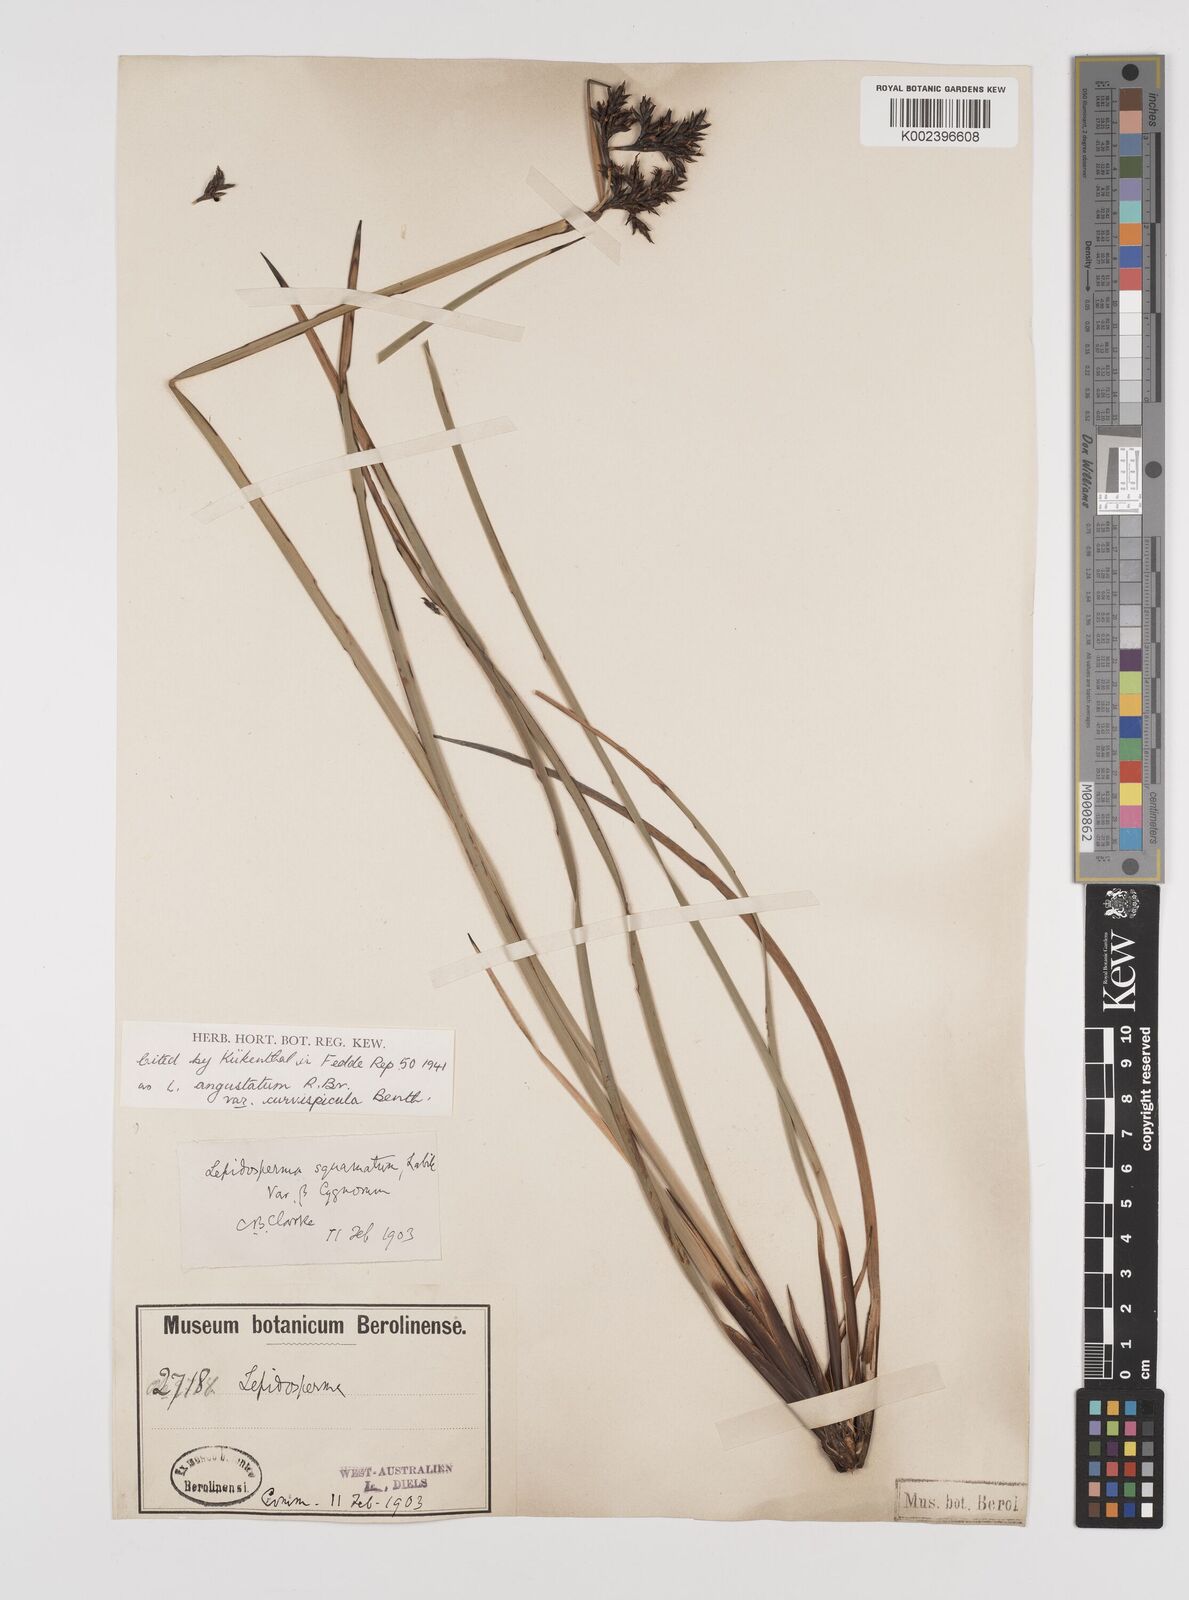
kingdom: Plantae
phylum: Tracheophyta
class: Liliopsida
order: Poales
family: Cyperaceae
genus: Lepidosperma
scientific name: Lepidosperma angustatum
